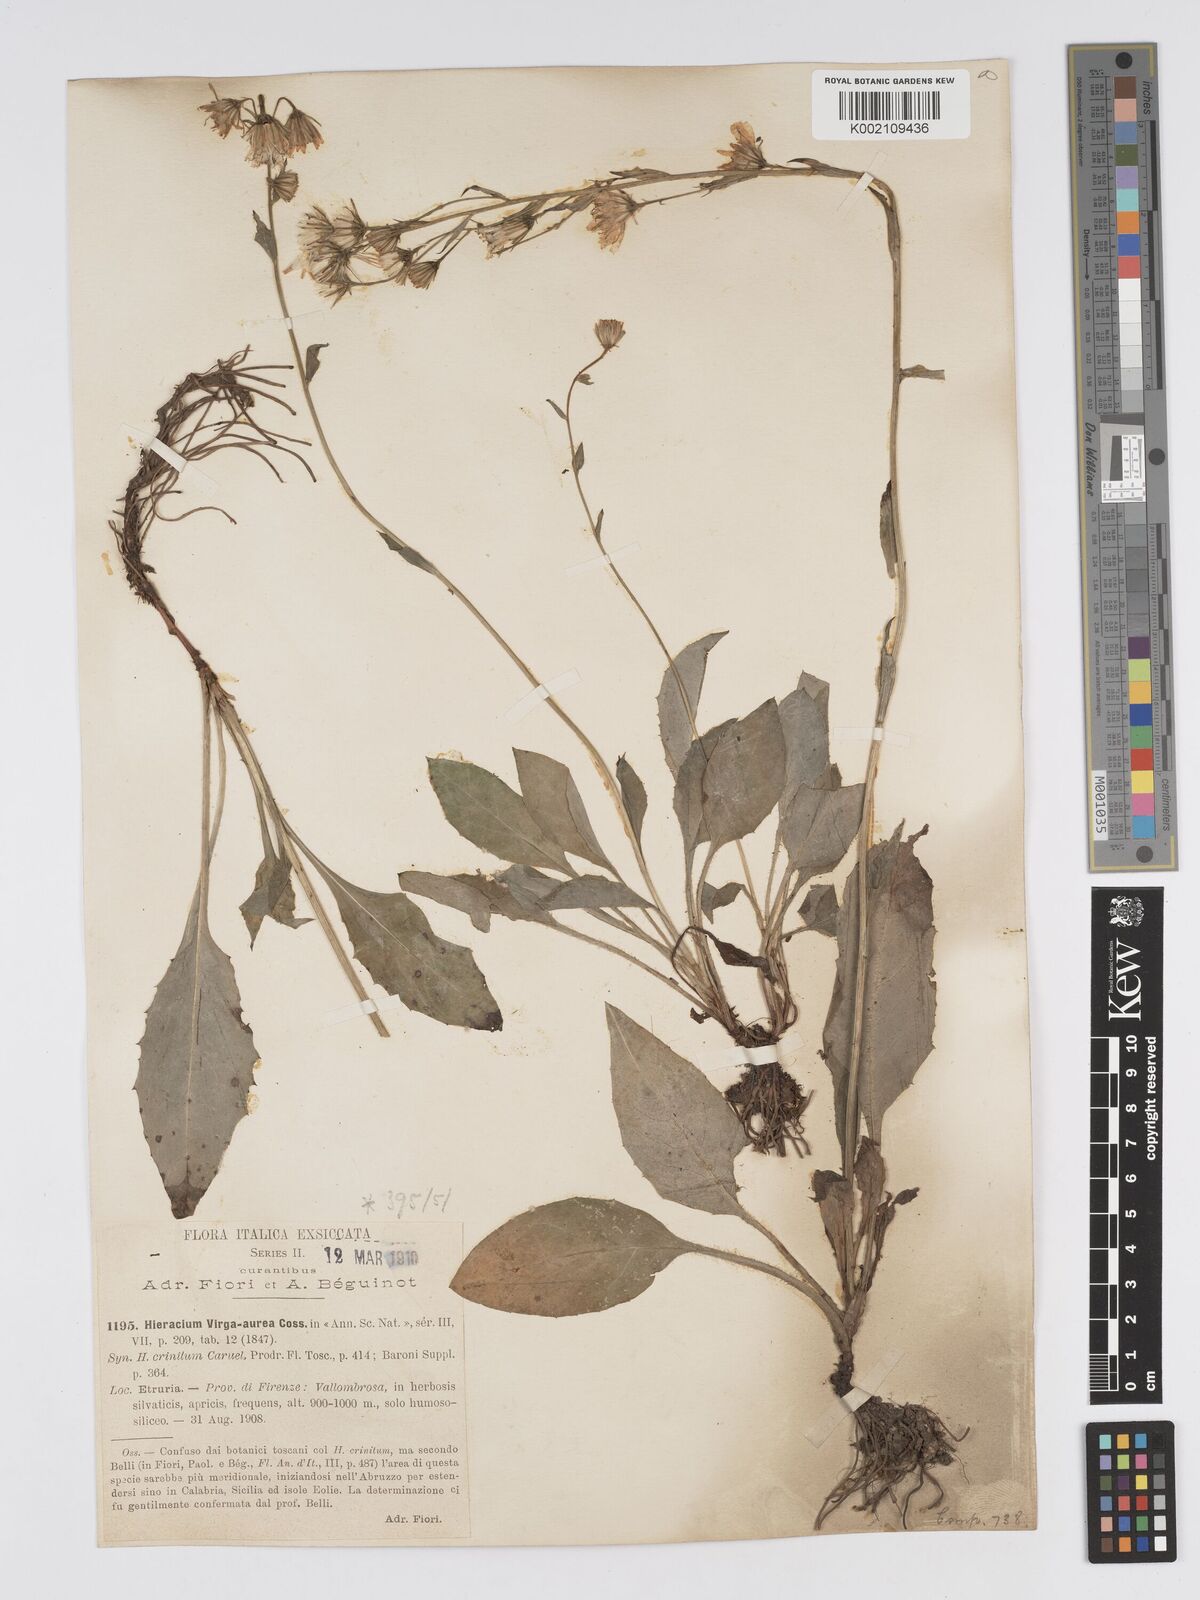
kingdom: Plantae
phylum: Tracheophyta
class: Magnoliopsida
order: Asterales
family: Asteraceae
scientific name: Asteraceae
